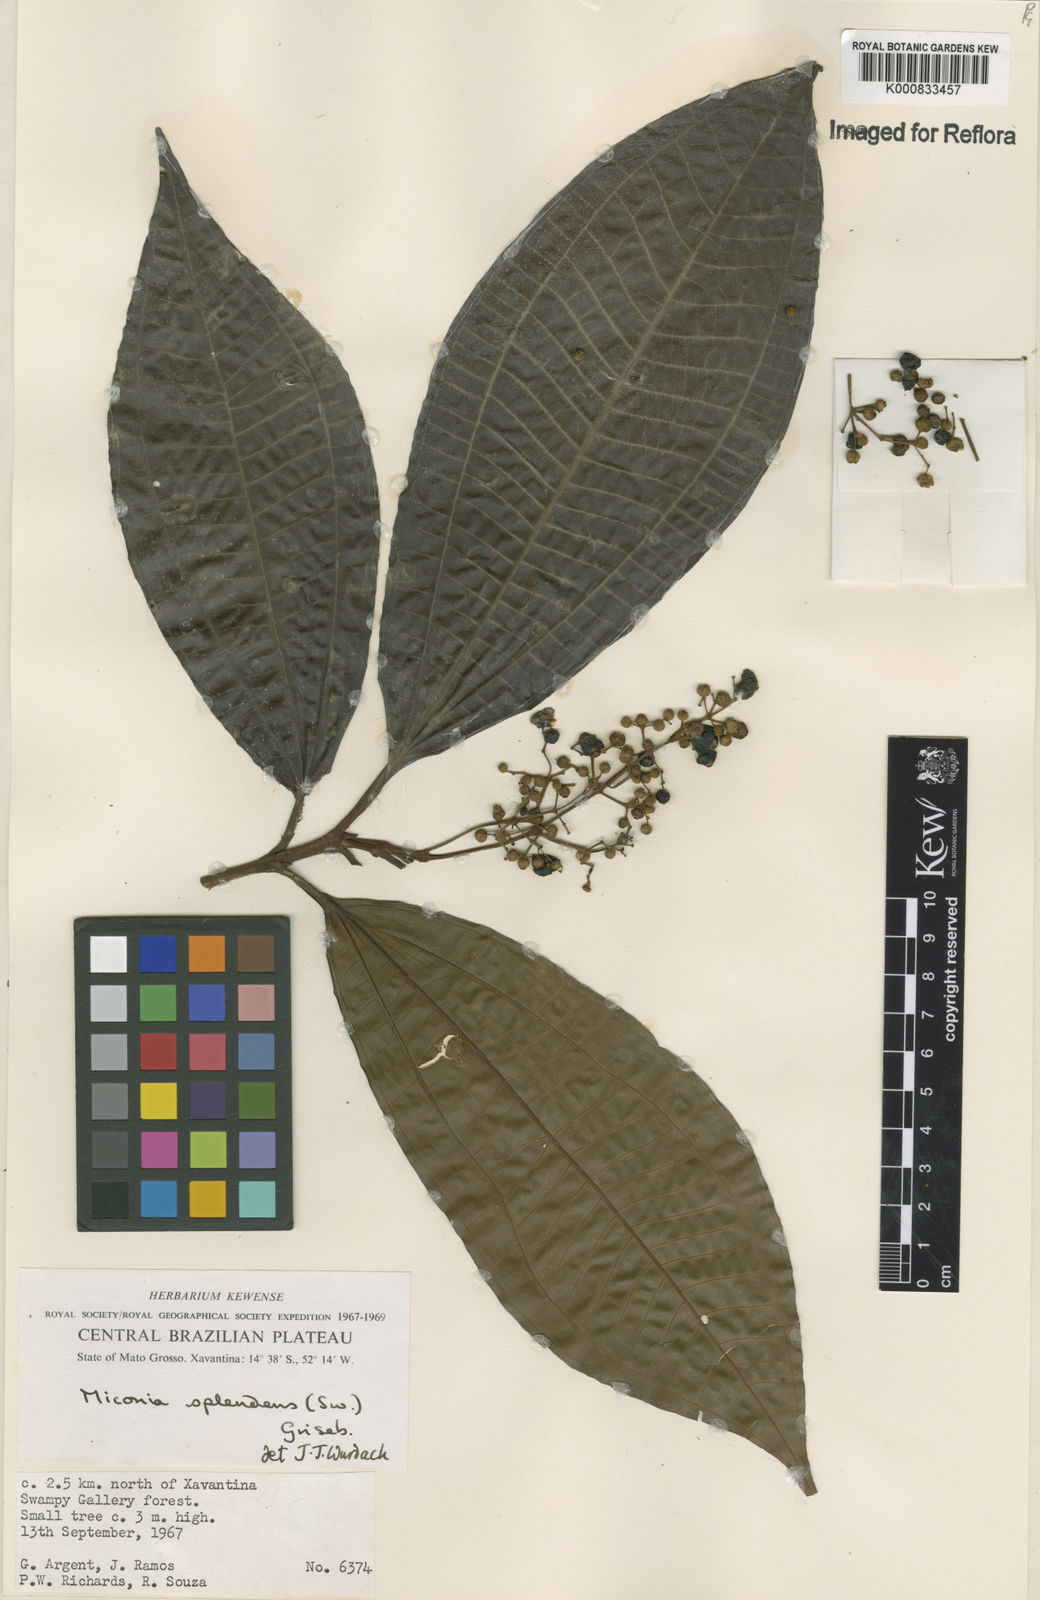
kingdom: Plantae
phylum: Tracheophyta
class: Magnoliopsida
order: Myrtales
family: Melastomataceae
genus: Miconia
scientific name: Miconia splendens
